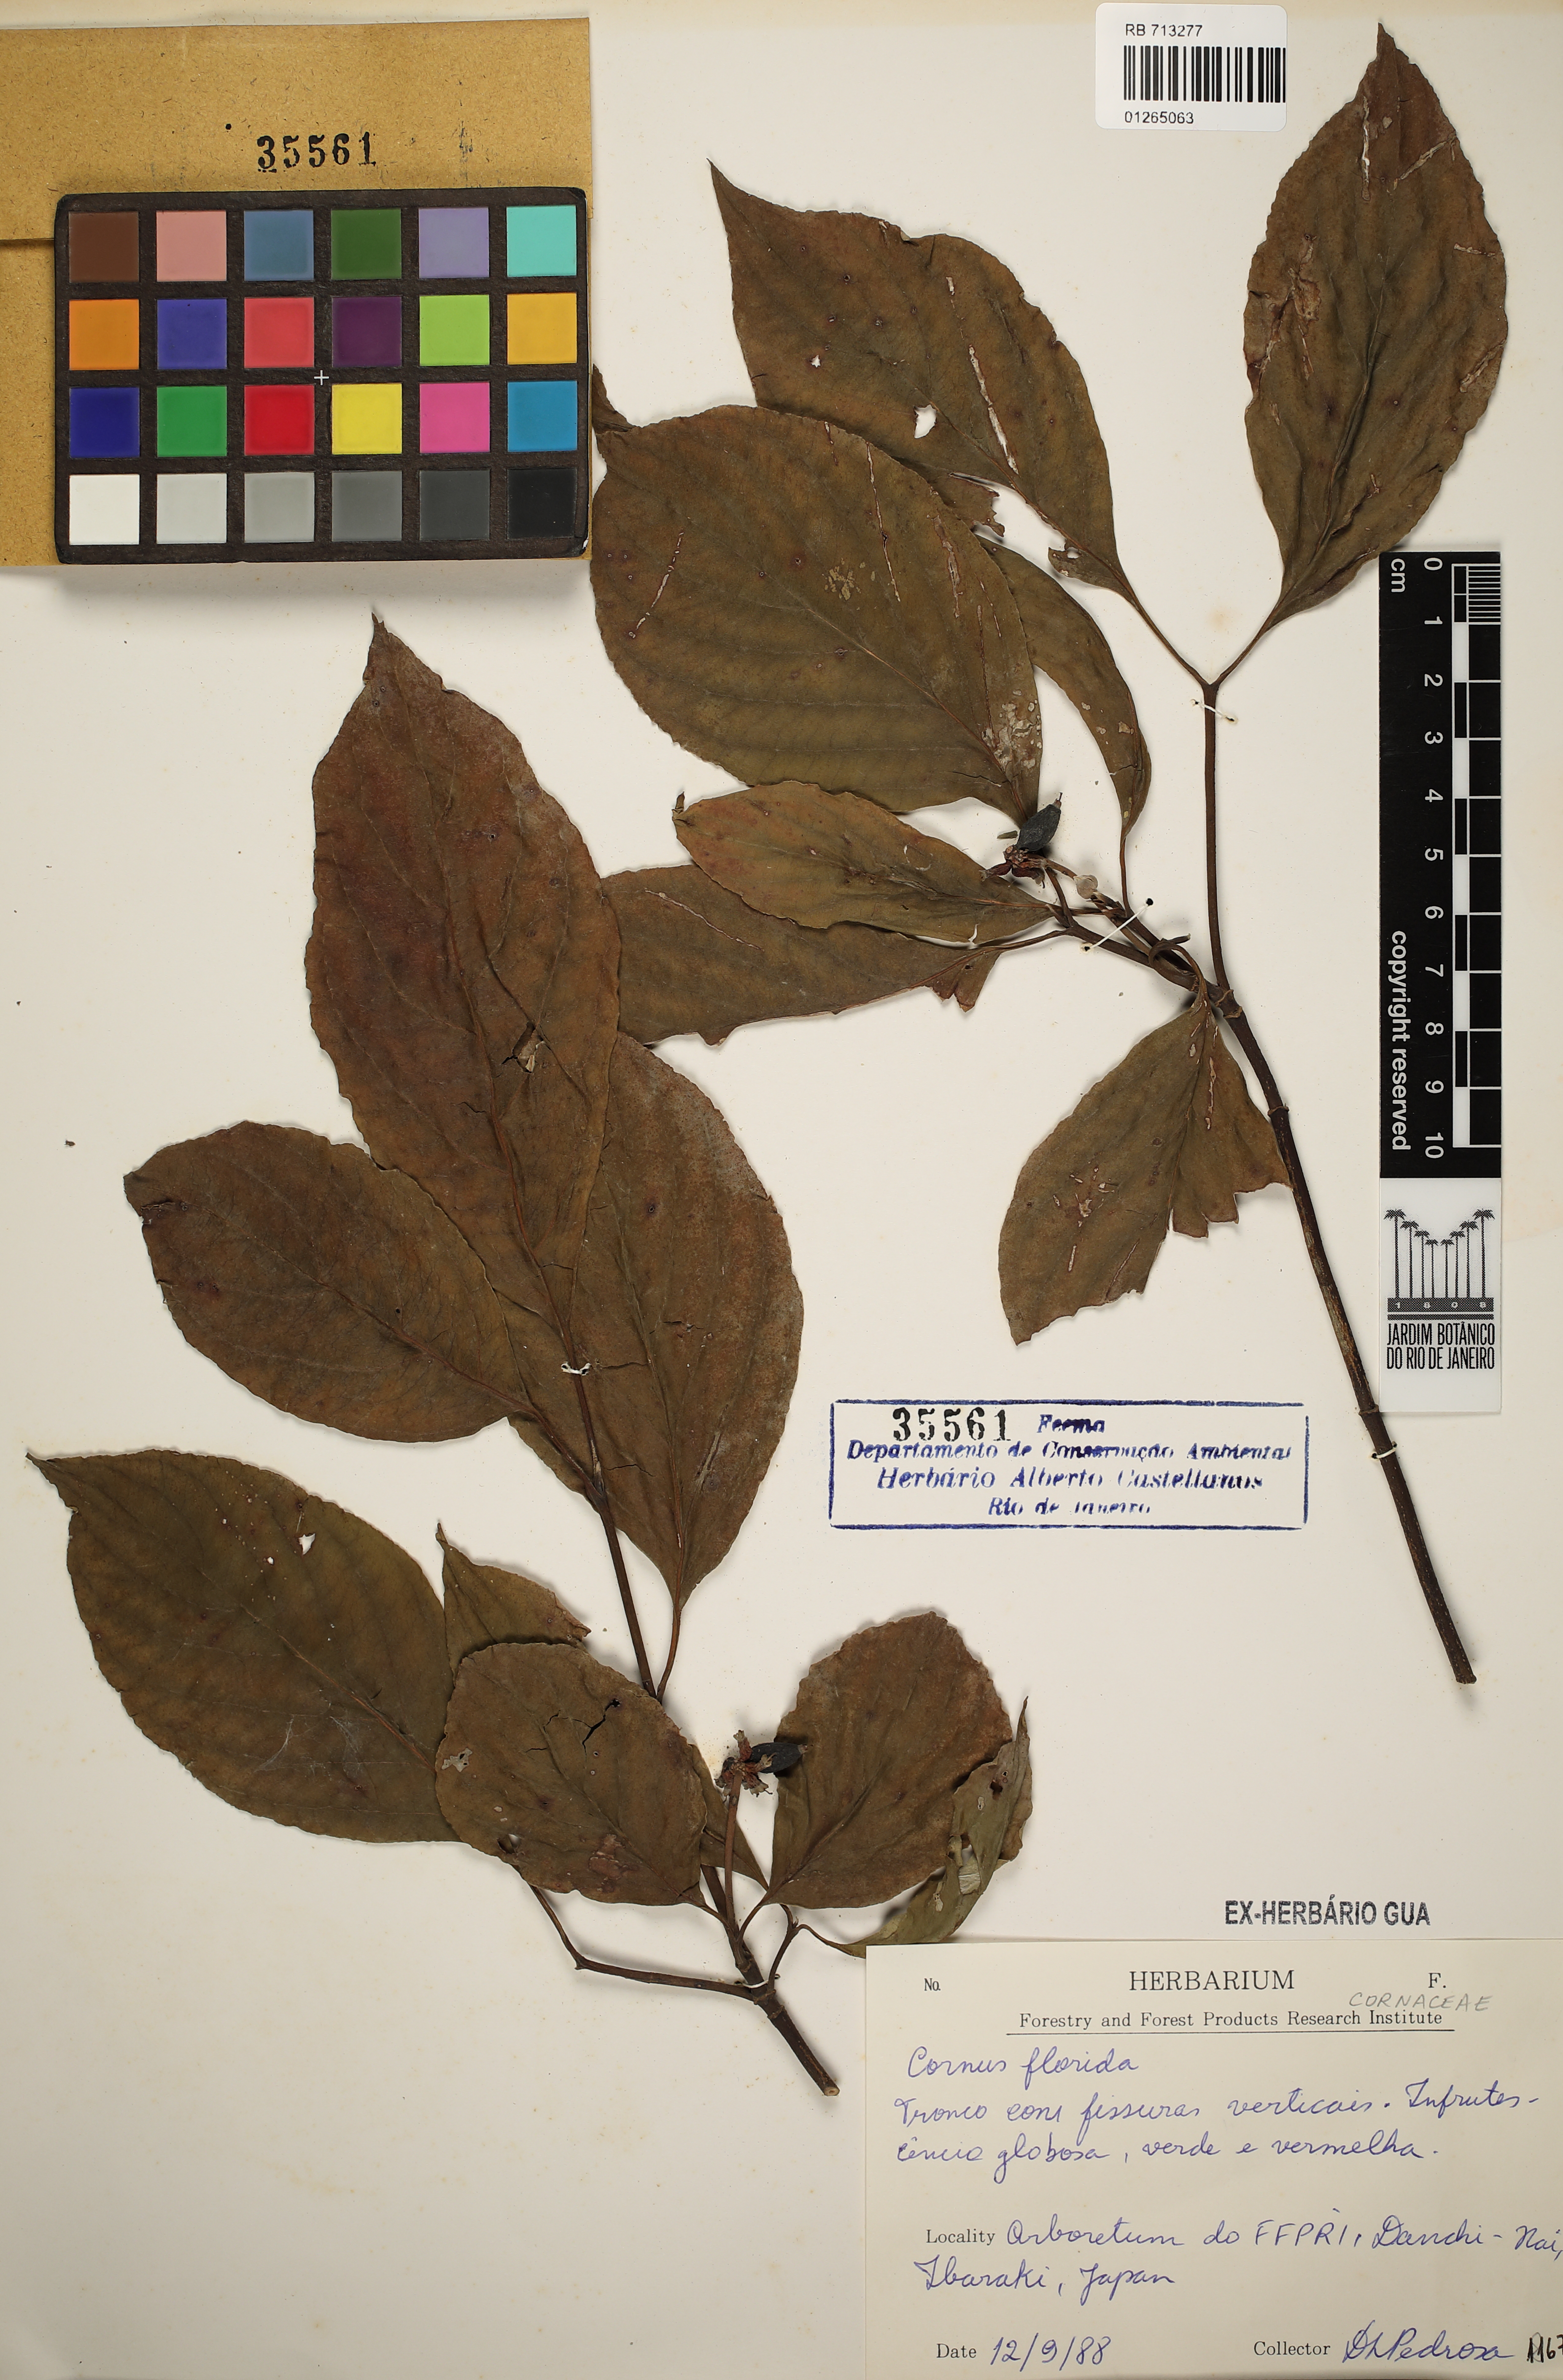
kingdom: Plantae
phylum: Tracheophyta
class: Magnoliopsida
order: Cornales
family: Cornaceae
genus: Cornus
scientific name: Cornus florida
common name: Flowering dogwood
